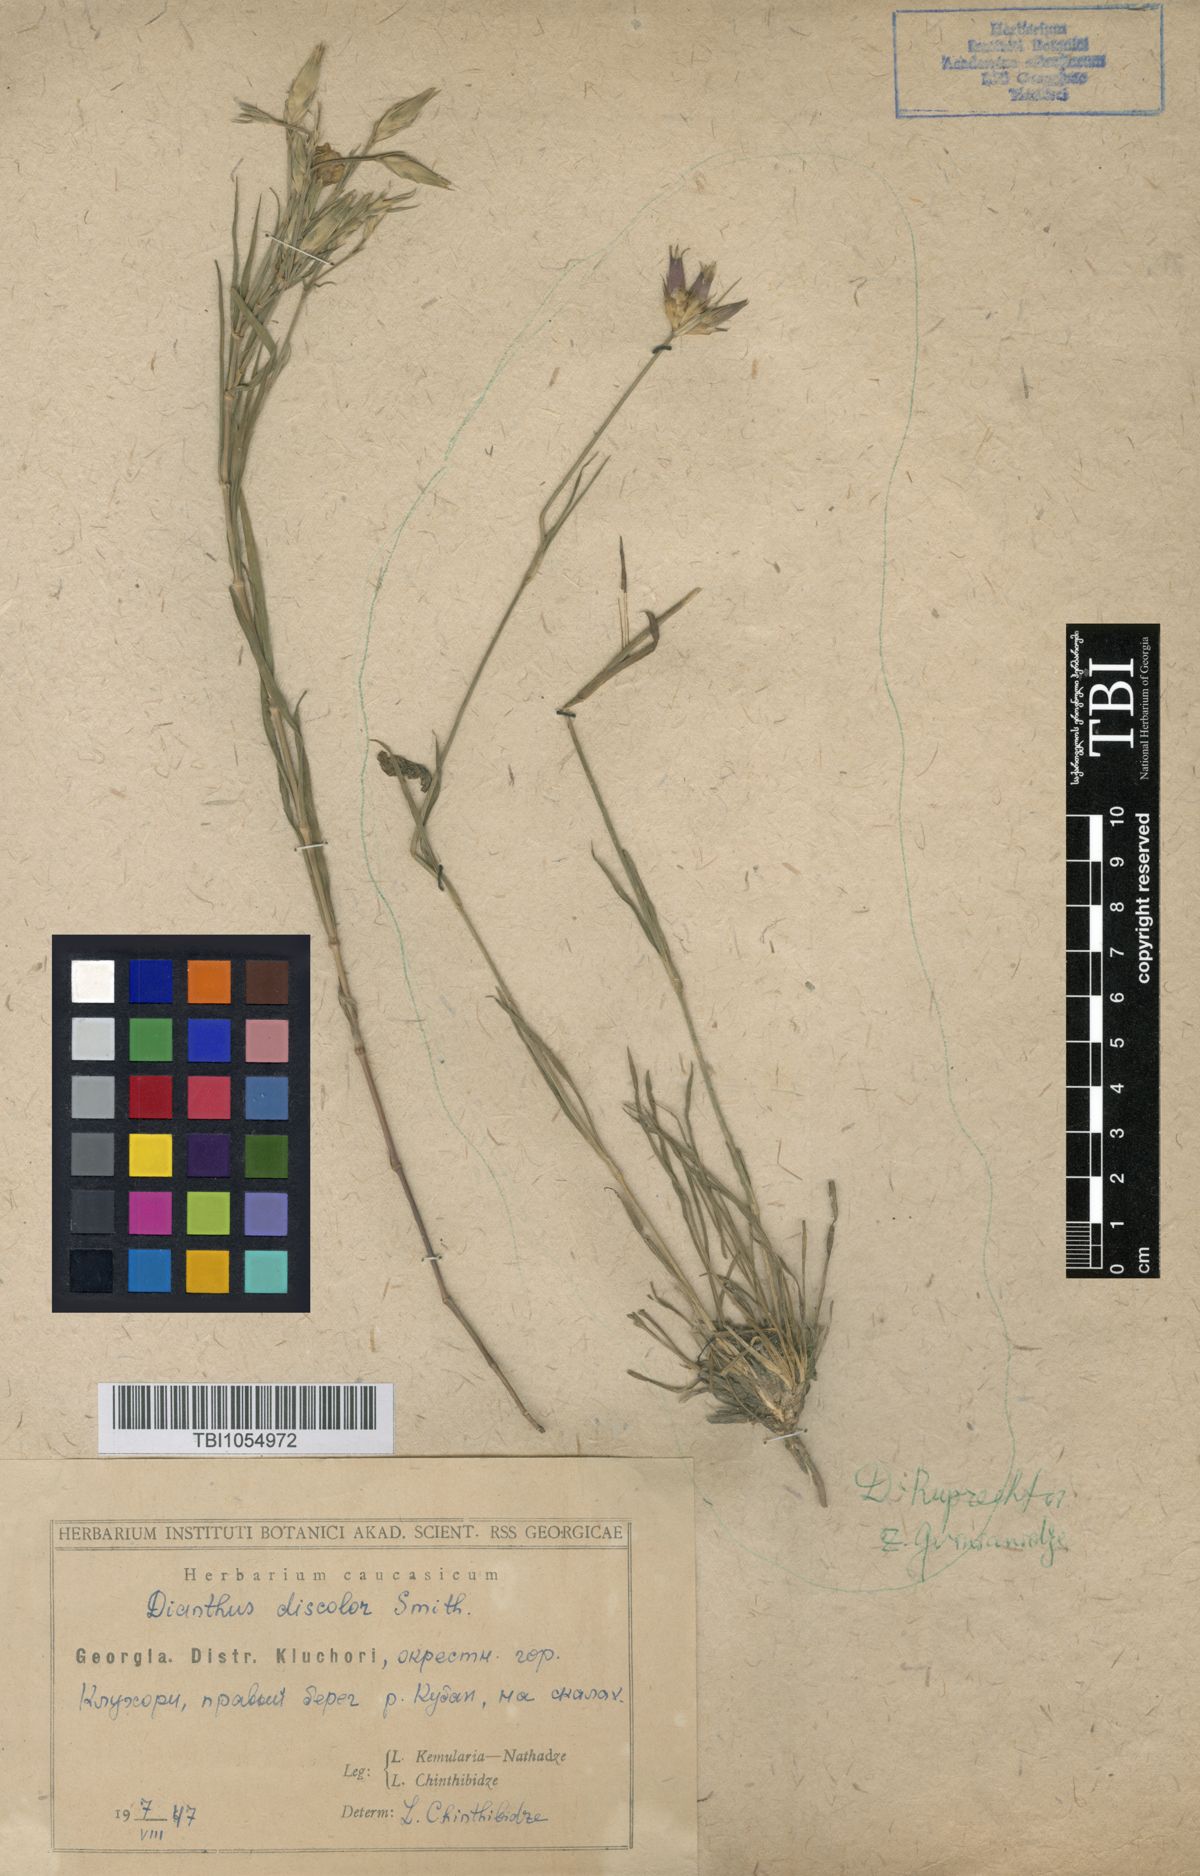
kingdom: Plantae
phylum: Tracheophyta
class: Magnoliopsida
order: Caryophyllales
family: Caryophyllaceae
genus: Dianthus
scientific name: Dianthus caucaseus
